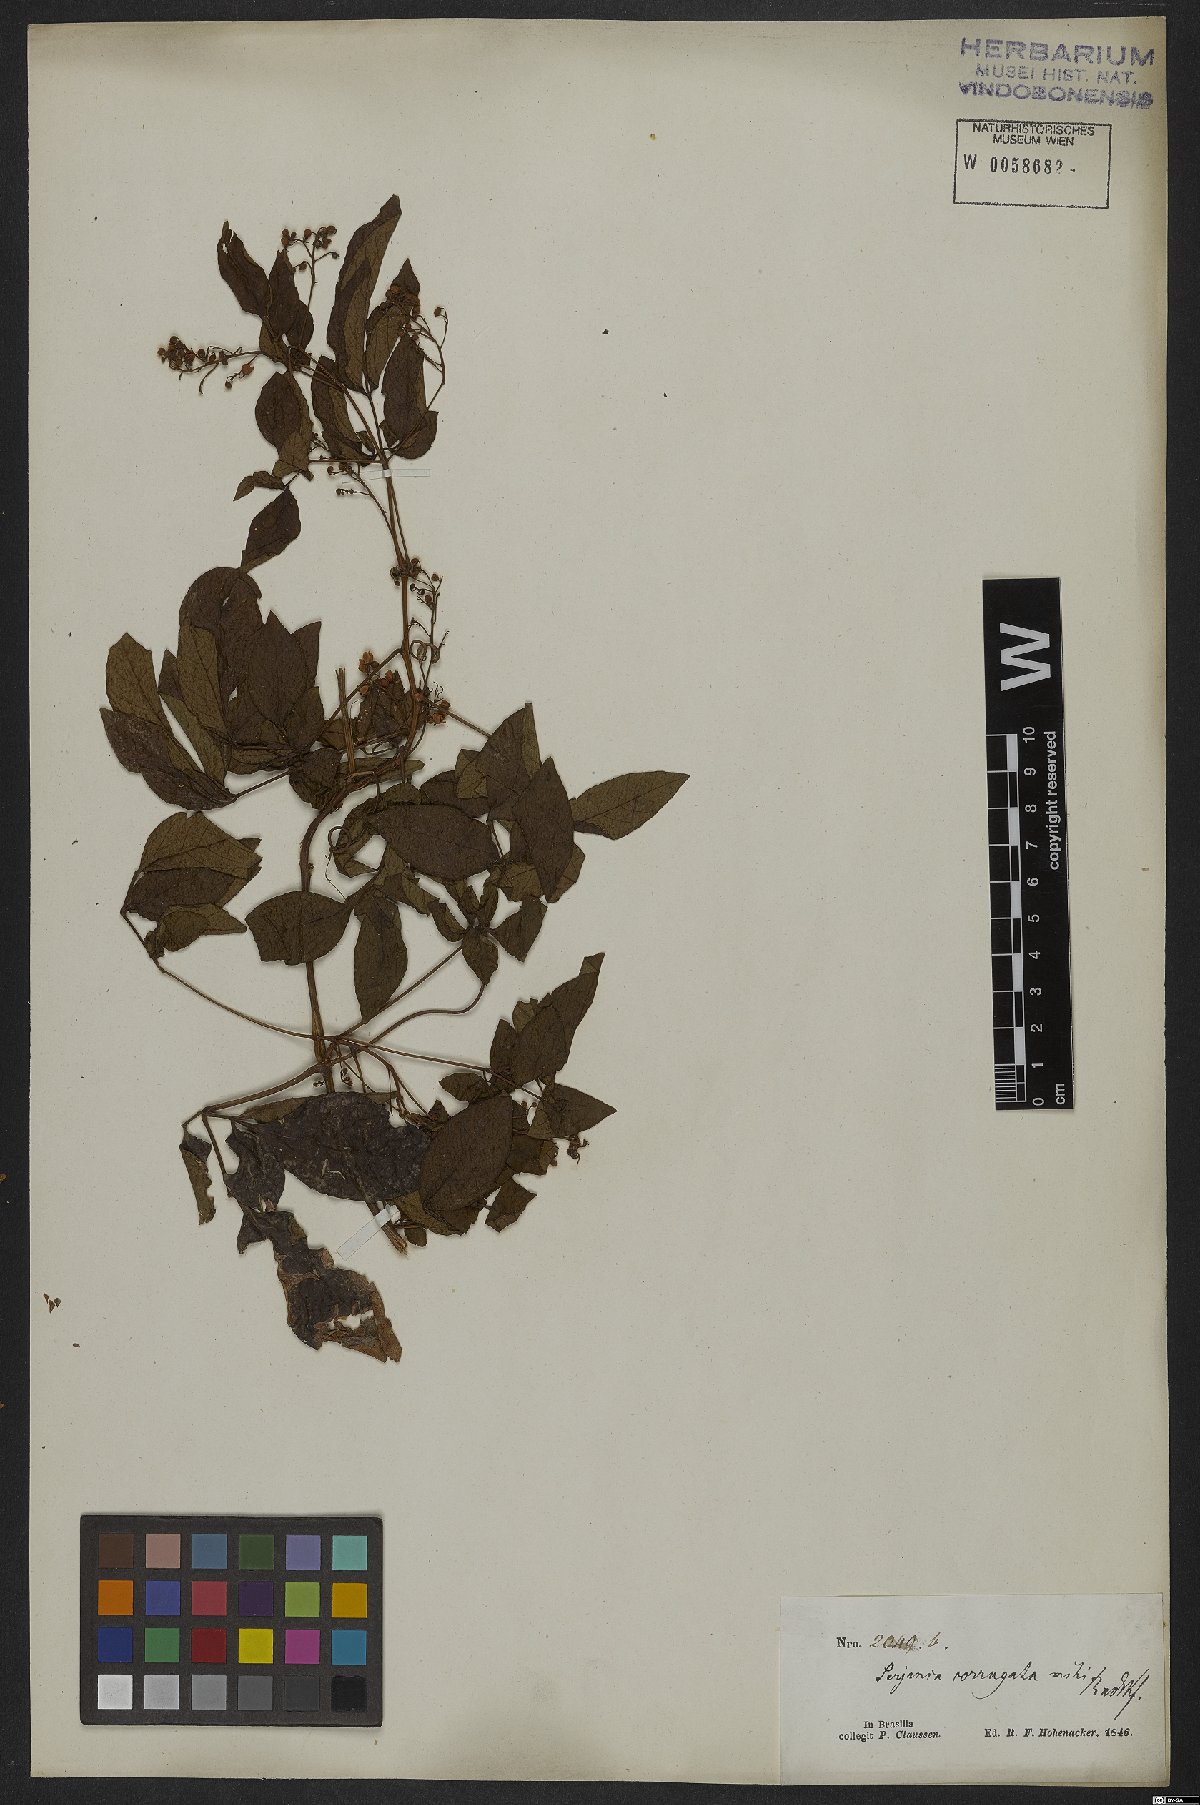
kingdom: Plantae
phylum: Tracheophyta
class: Magnoliopsida
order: Sapindales
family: Sapindaceae
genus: Serjania
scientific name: Serjania corrugata
